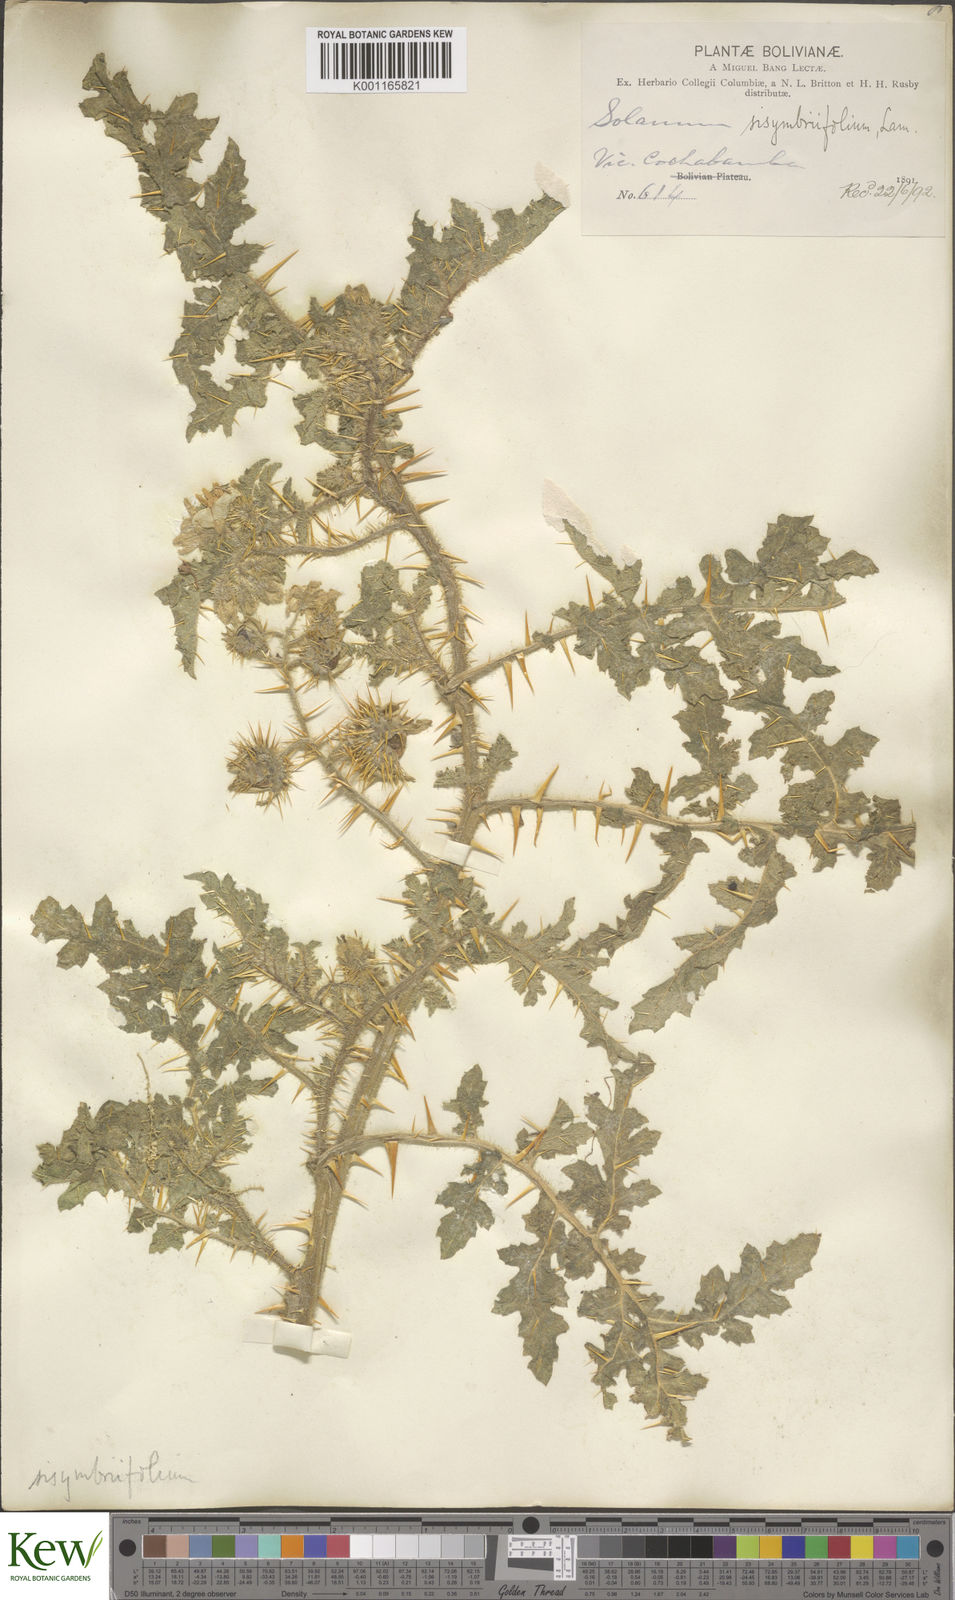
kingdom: Plantae
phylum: Tracheophyta
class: Magnoliopsida
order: Solanales
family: Solanaceae
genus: Solanum
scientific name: Solanum sisymbriifolium
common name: Red buffalo-bur
